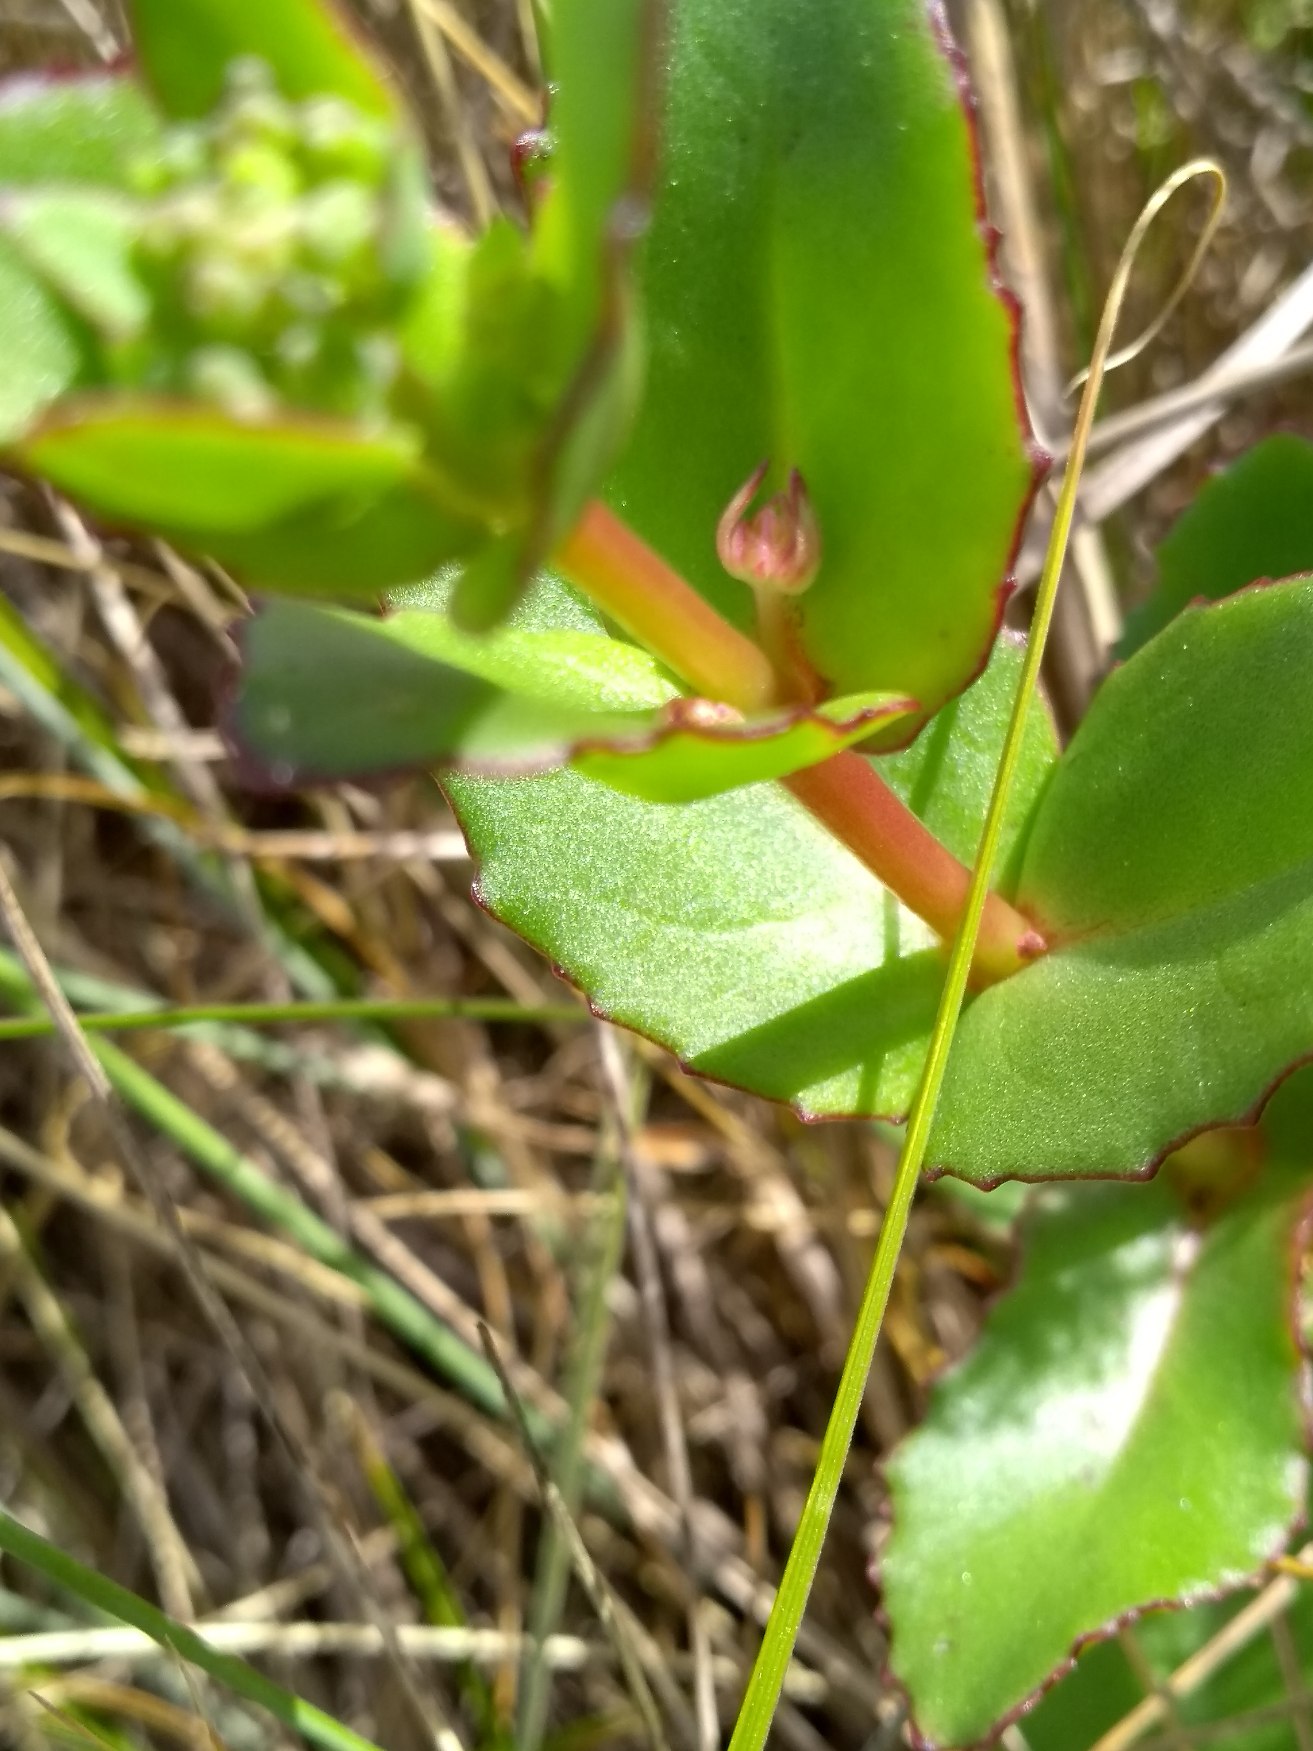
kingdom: Plantae
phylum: Tracheophyta
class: Magnoliopsida
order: Saxifragales
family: Crassulaceae
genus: Hylotelephium
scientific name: Hylotelephium maximum
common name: Almindelig sankthansurt
